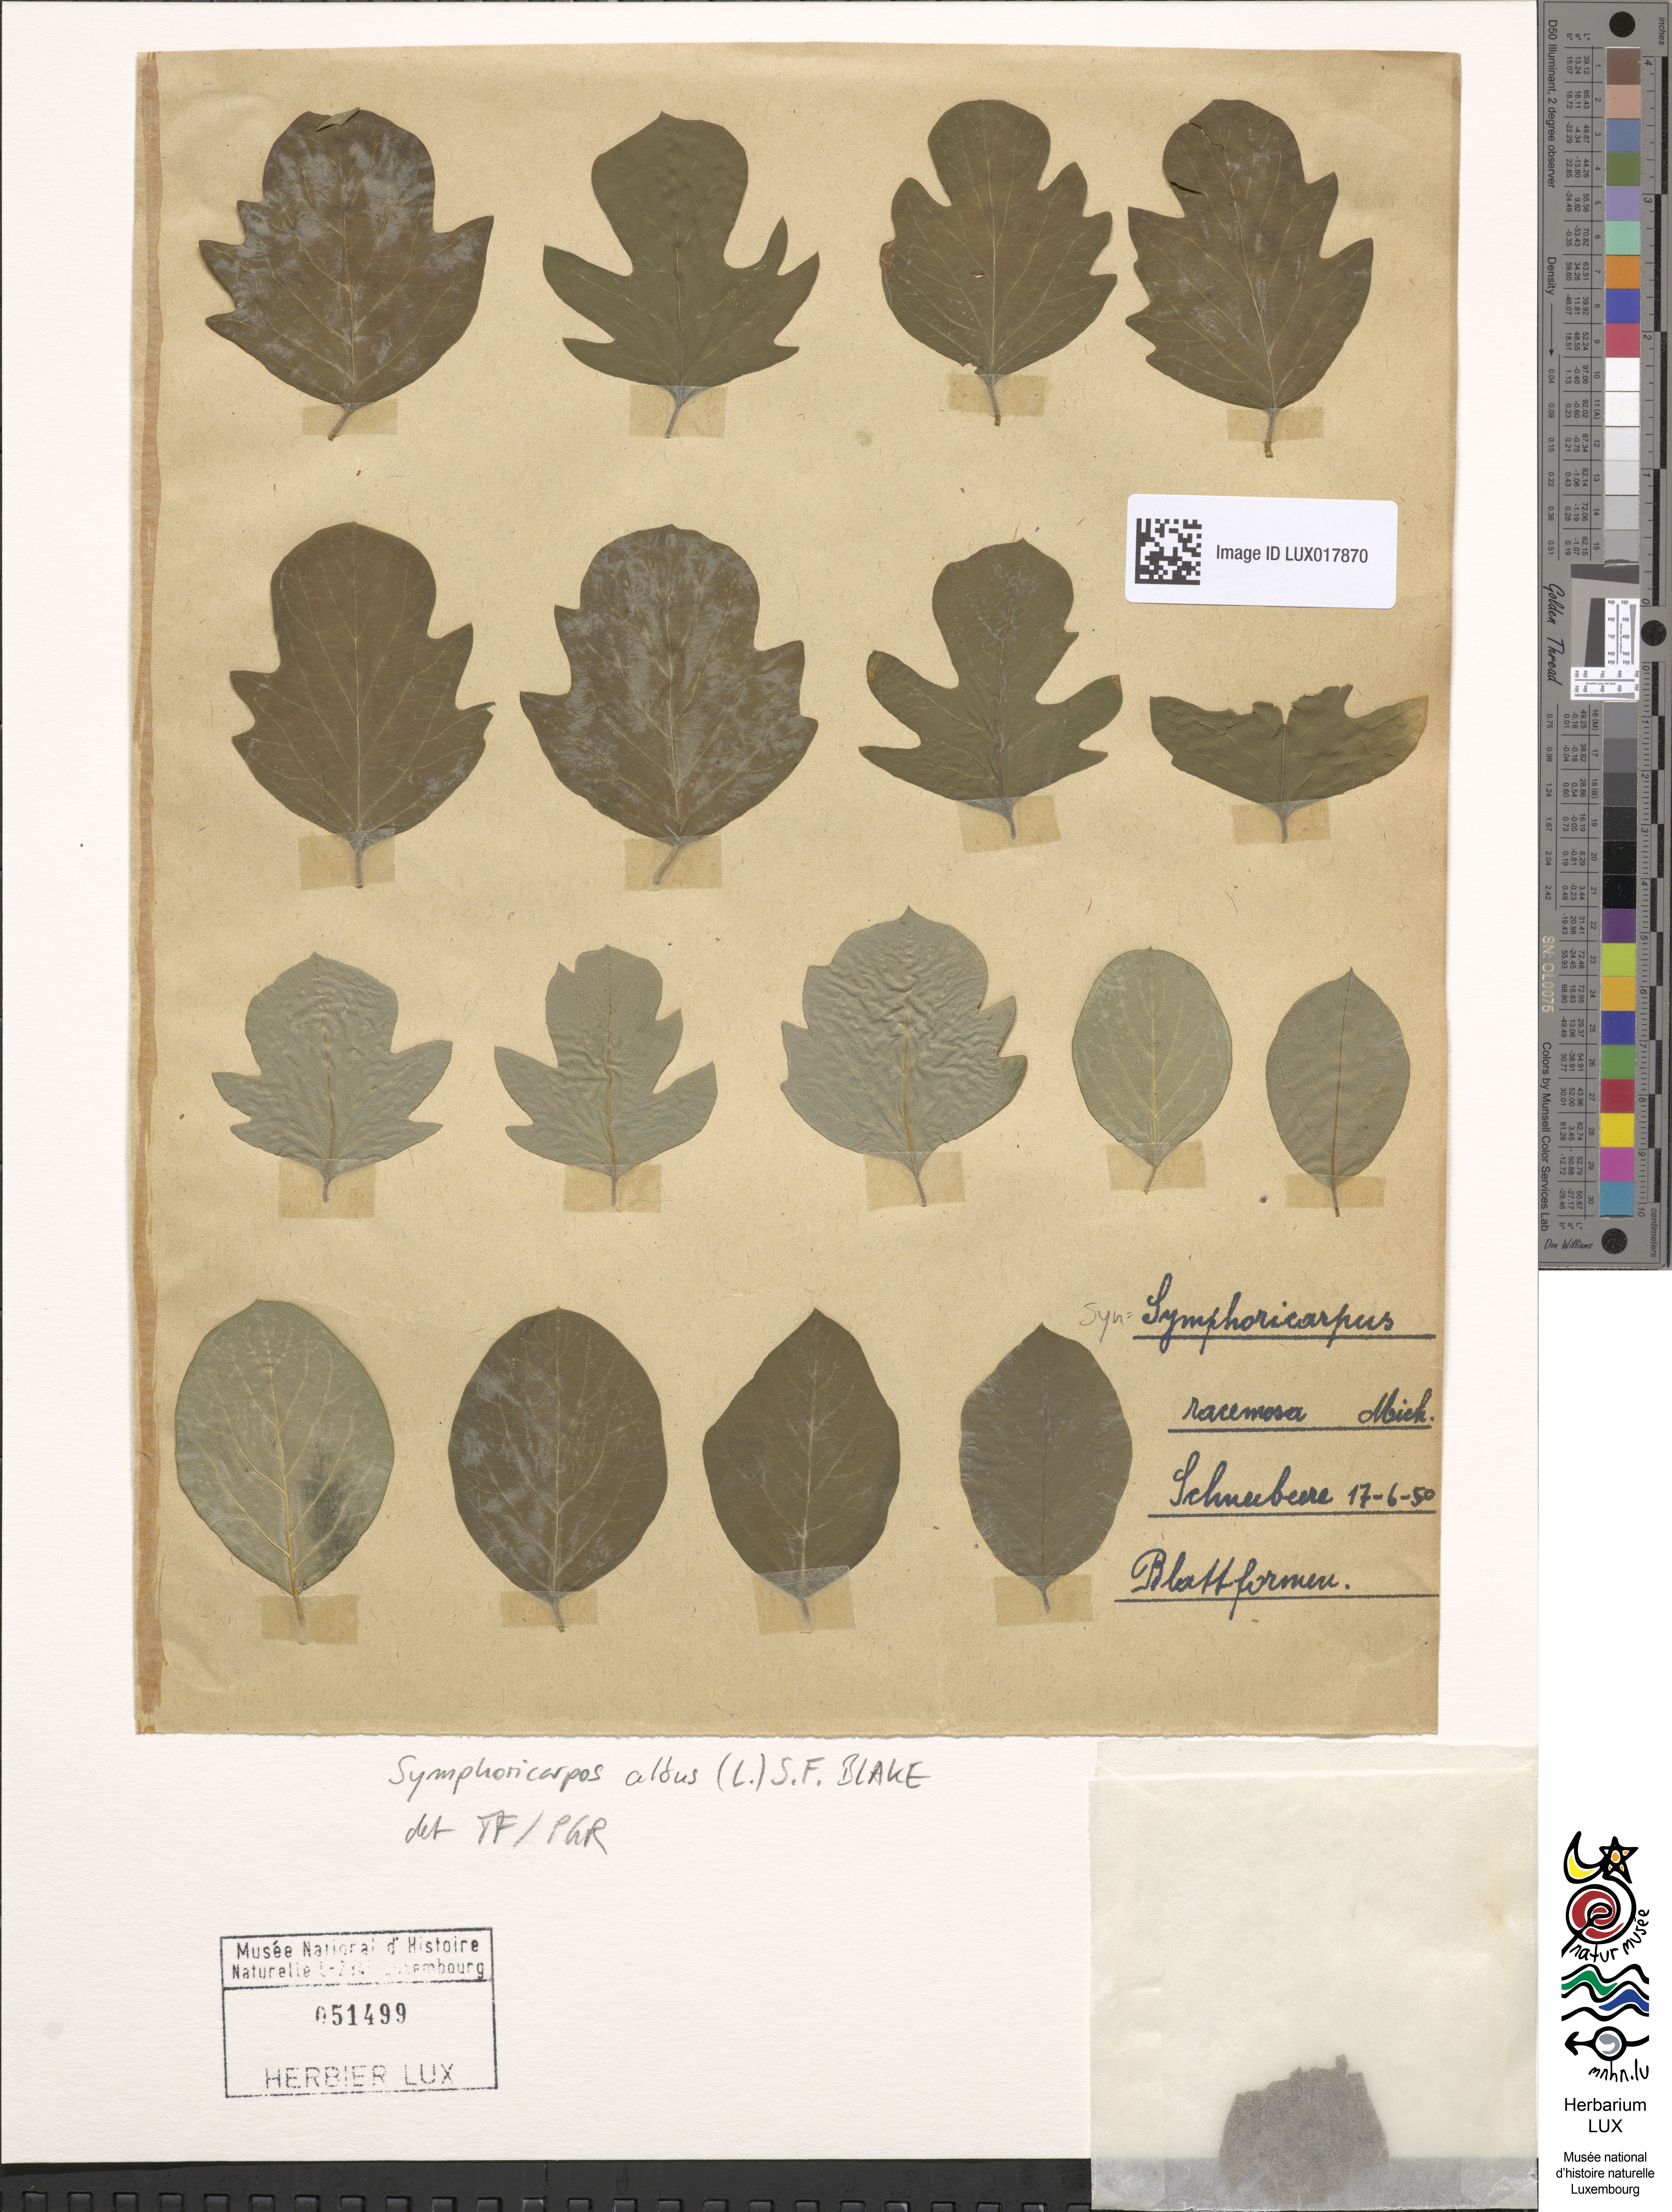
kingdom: Plantae
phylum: Tracheophyta
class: Magnoliopsida
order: Dipsacales
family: Caprifoliaceae
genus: Symphoricarpos
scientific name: Symphoricarpos albus
